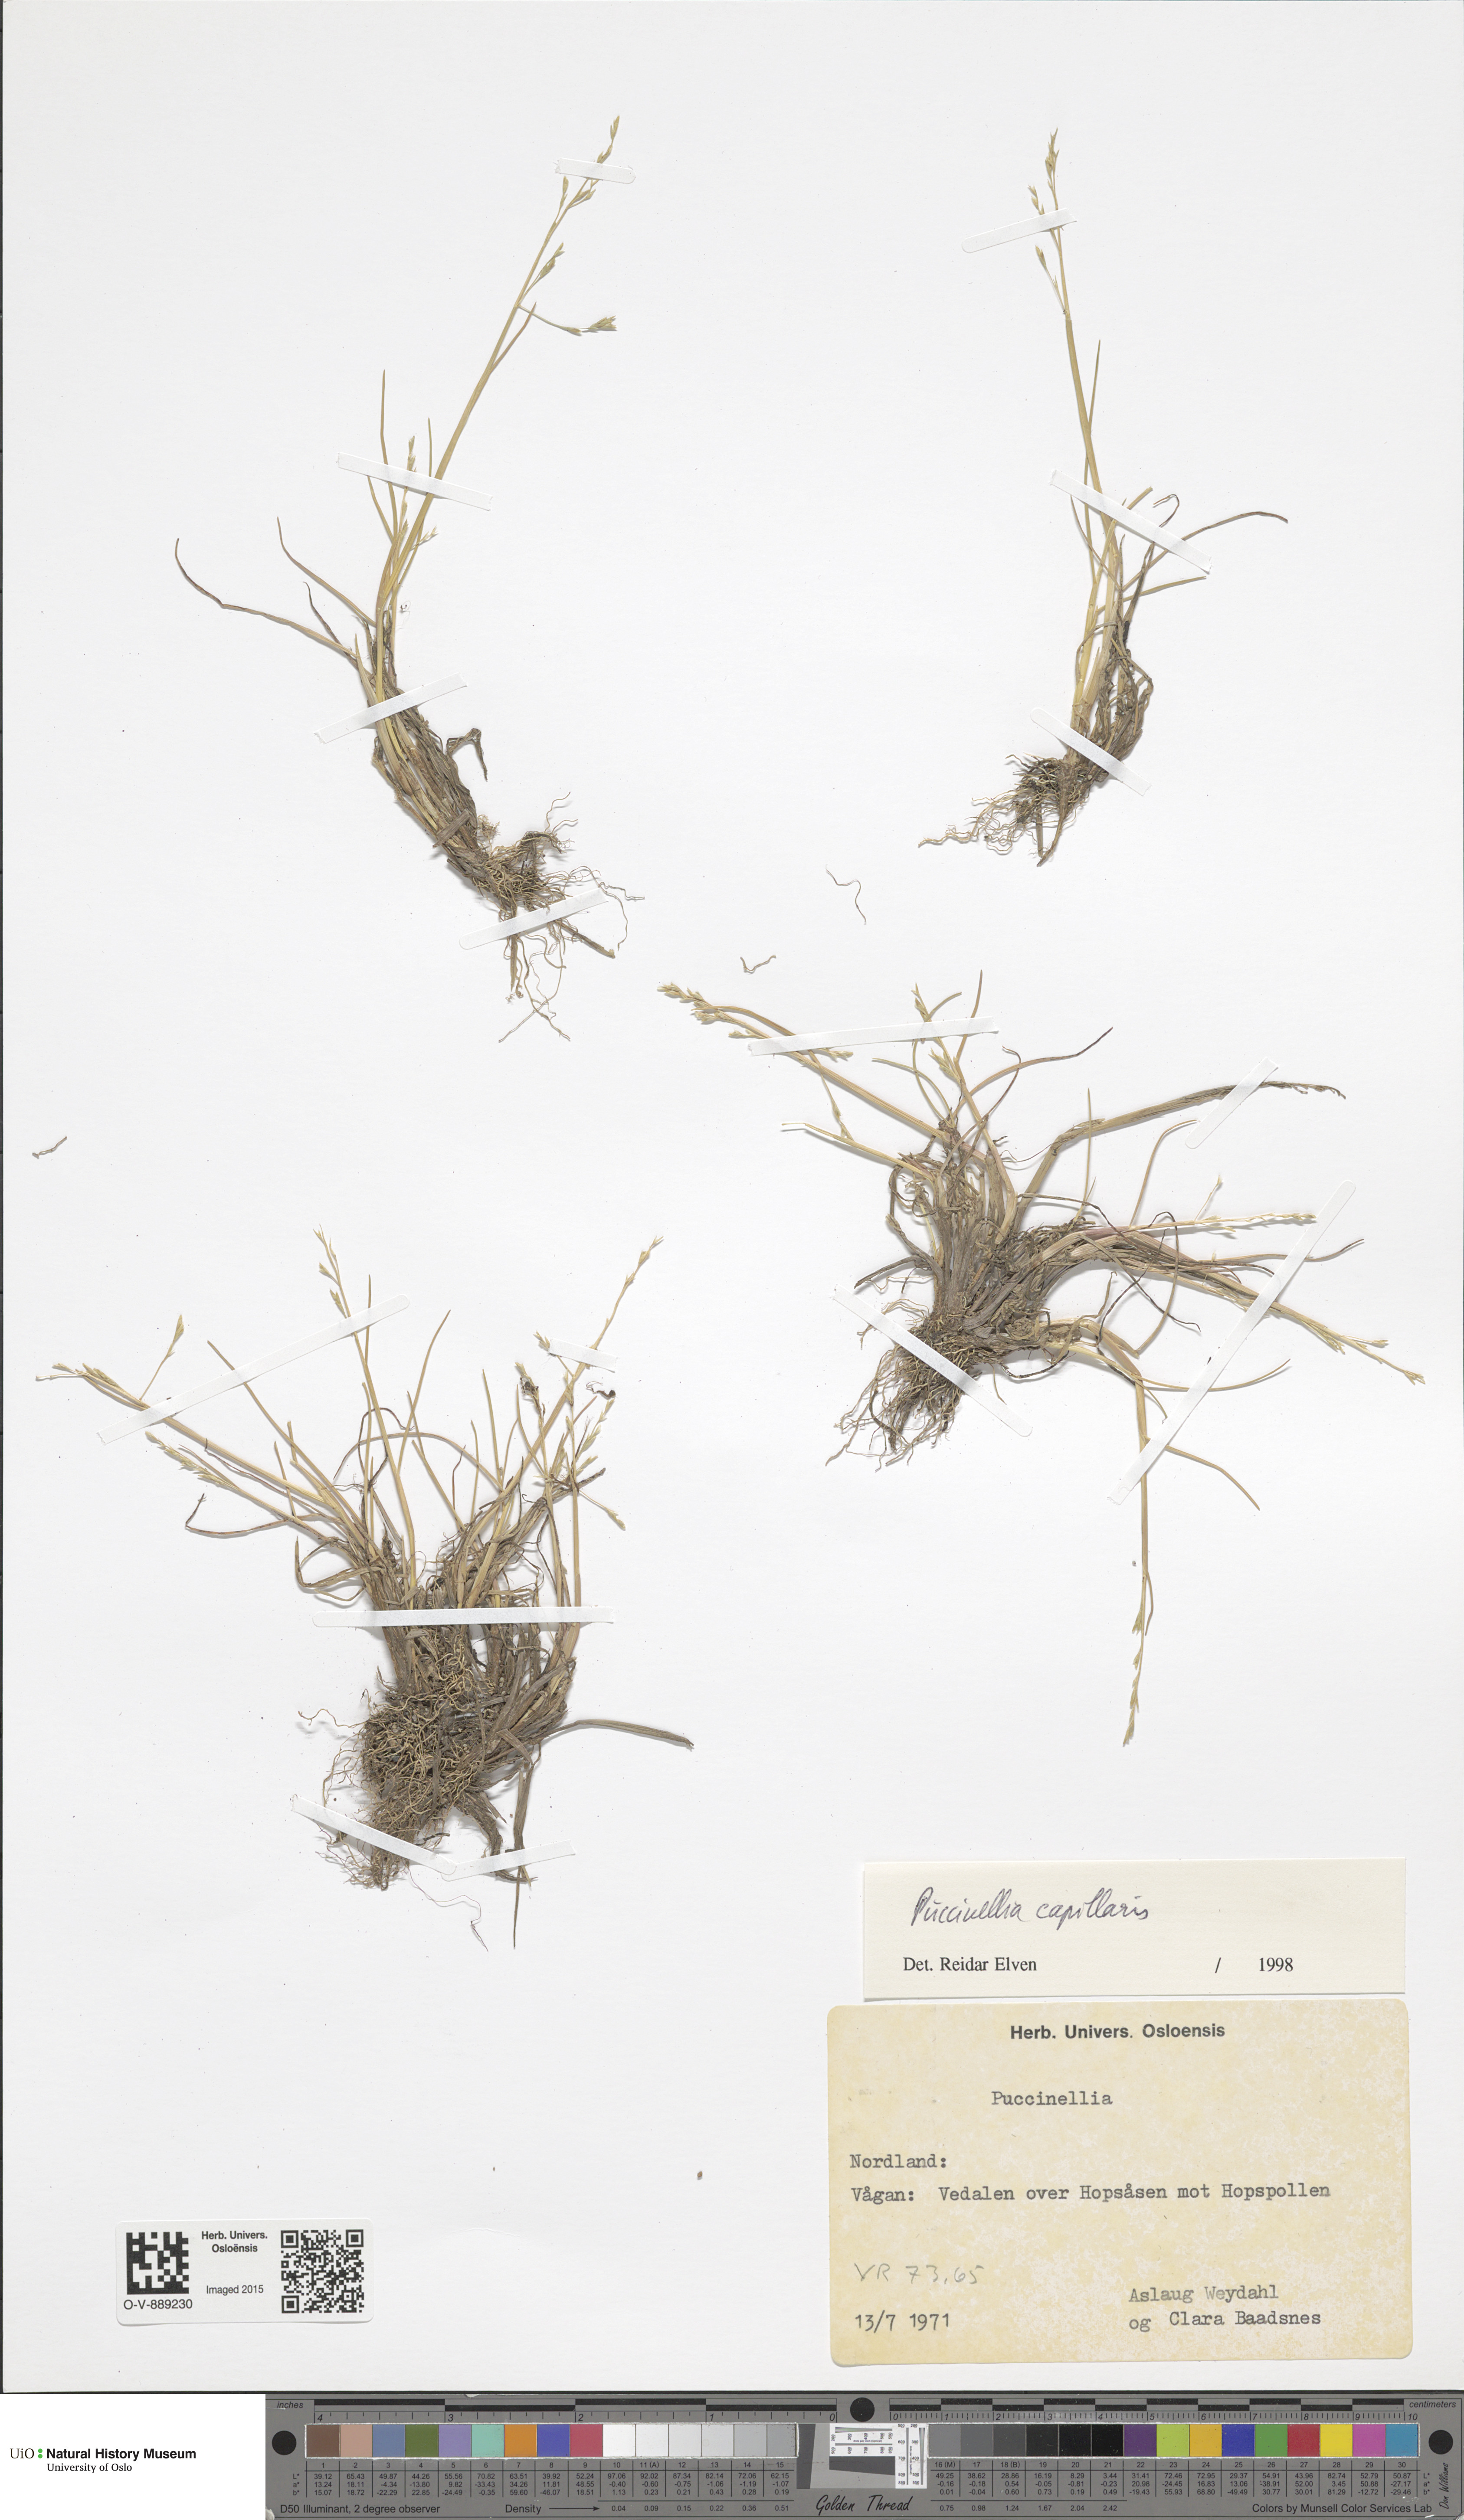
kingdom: Plantae
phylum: Tracheophyta
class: Liliopsida
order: Poales
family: Poaceae
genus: Puccinellia
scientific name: Puccinellia distans
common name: Weeping alkaligrass
